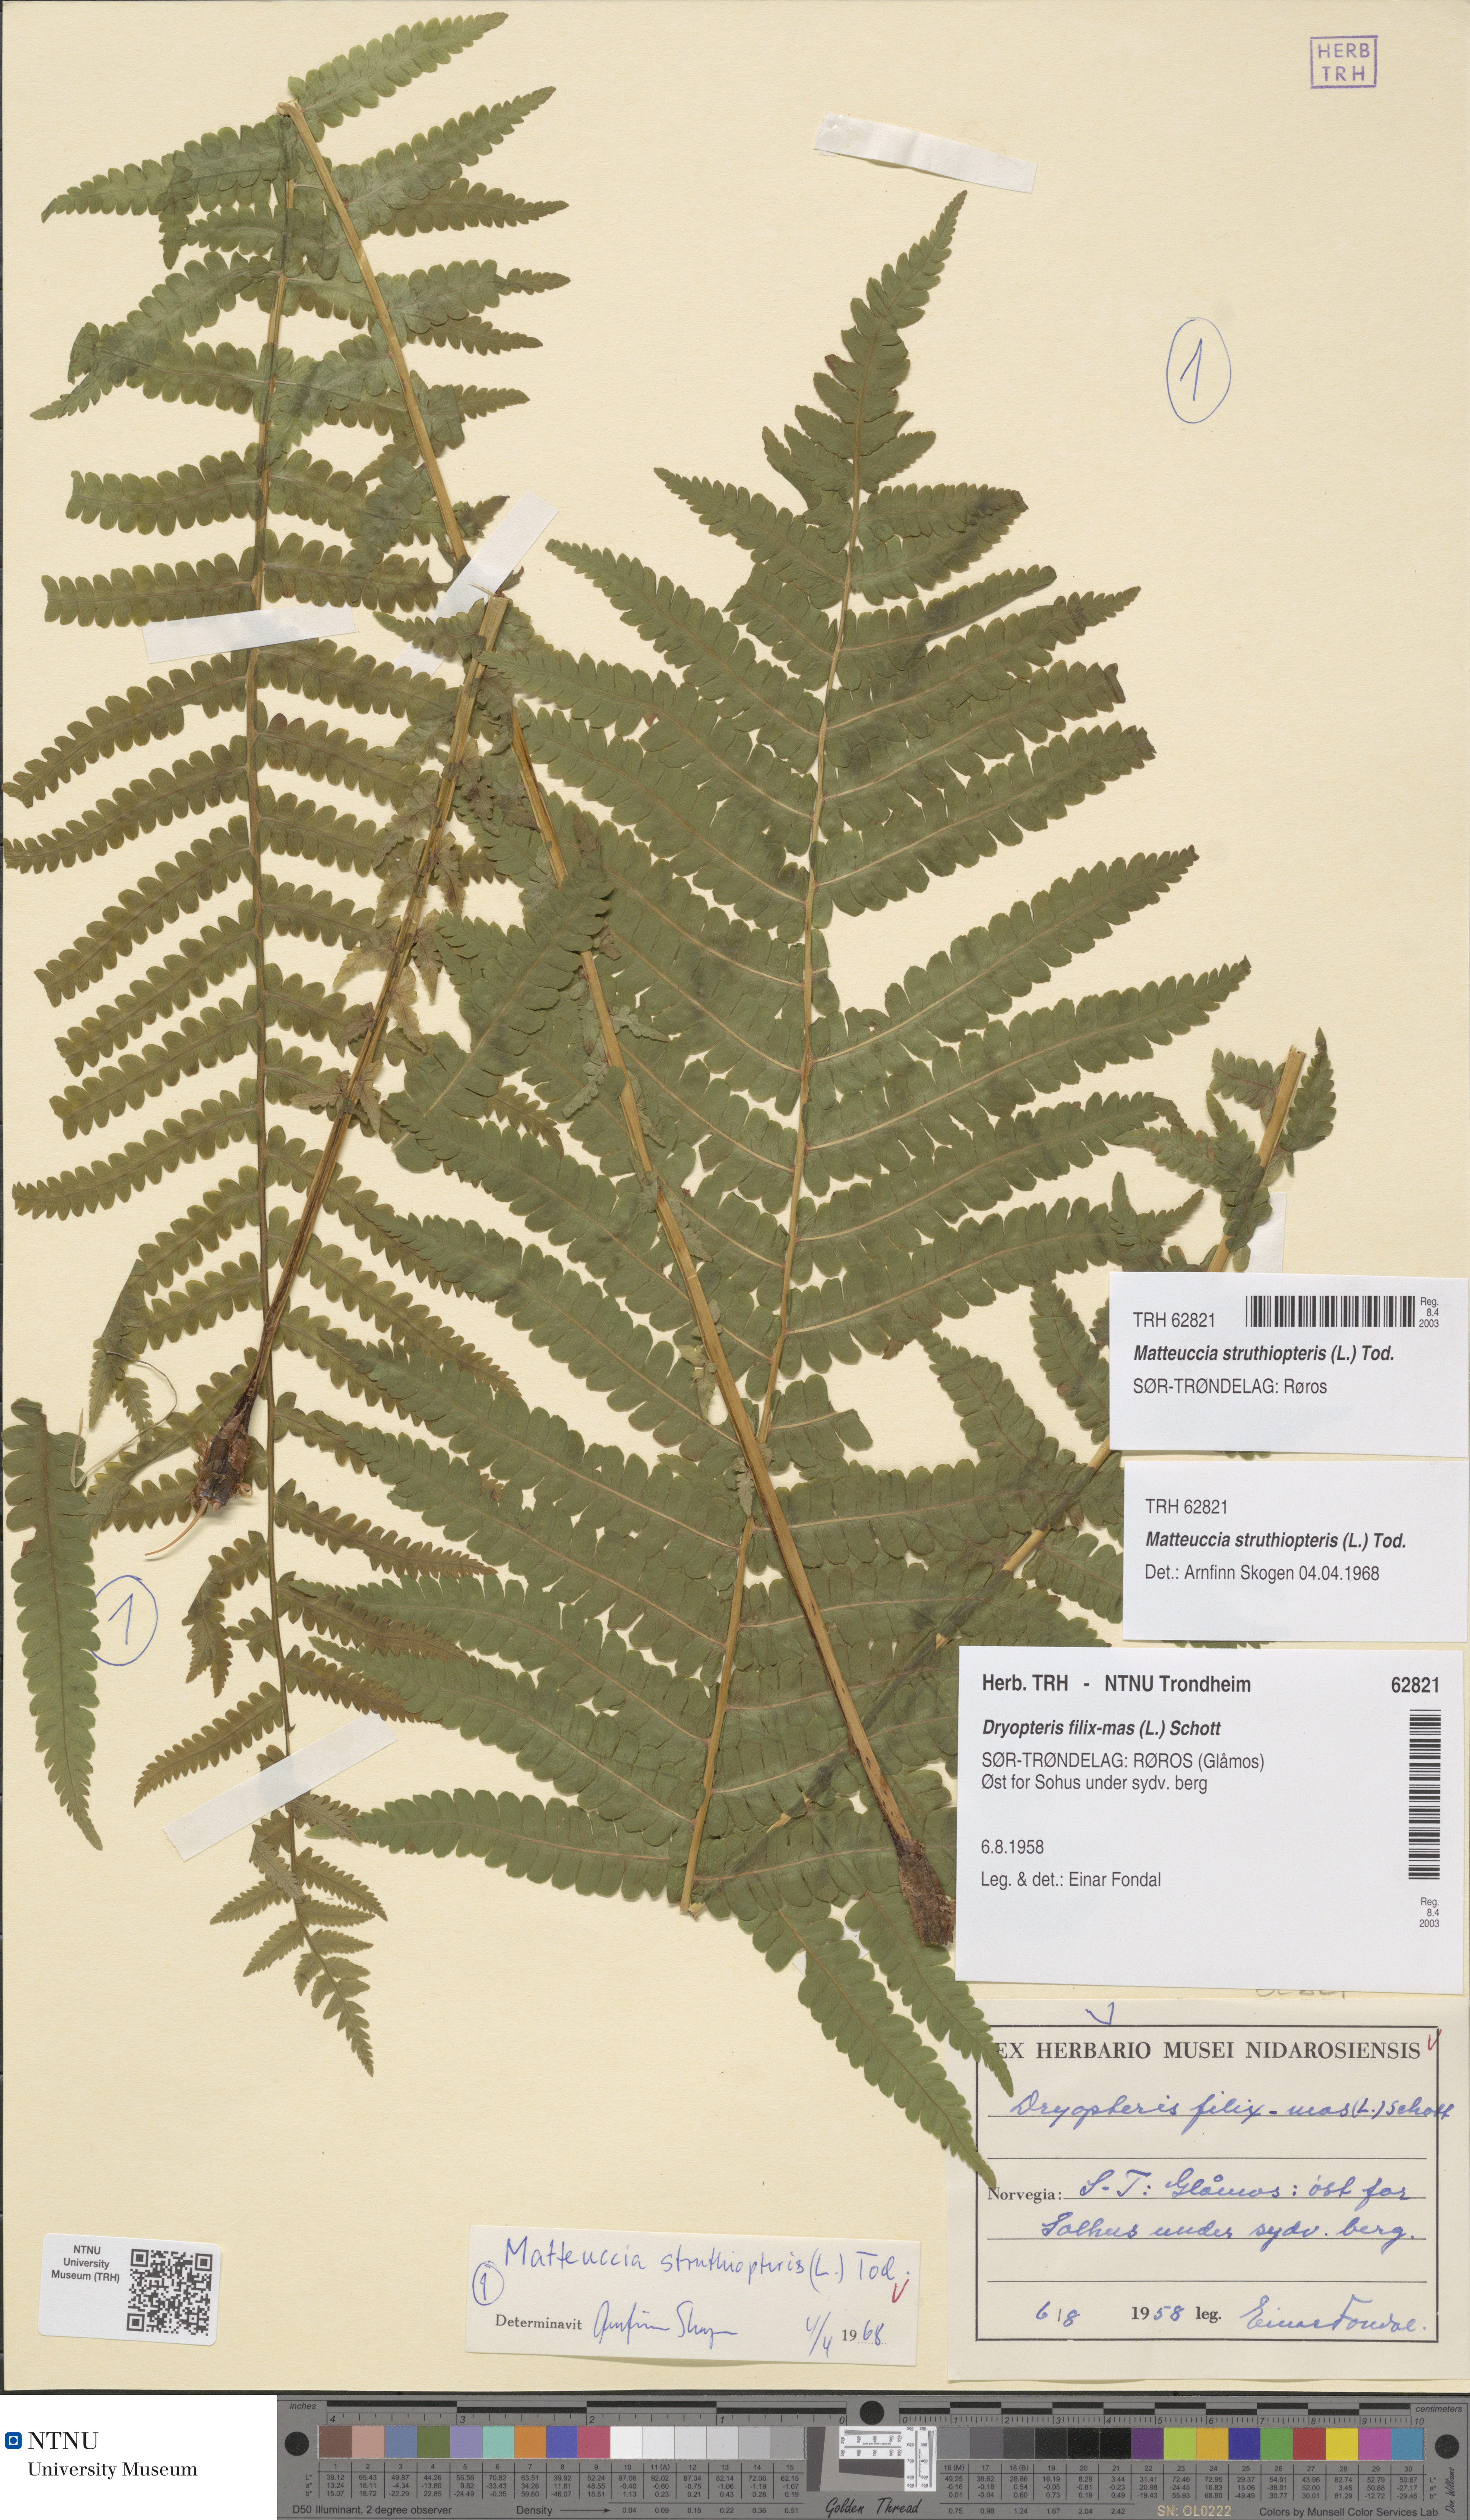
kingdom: Plantae
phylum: Tracheophyta
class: Polypodiopsida
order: Polypodiales
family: Onocleaceae
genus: Matteuccia
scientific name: Matteuccia struthiopteris
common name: Ostrich fern
